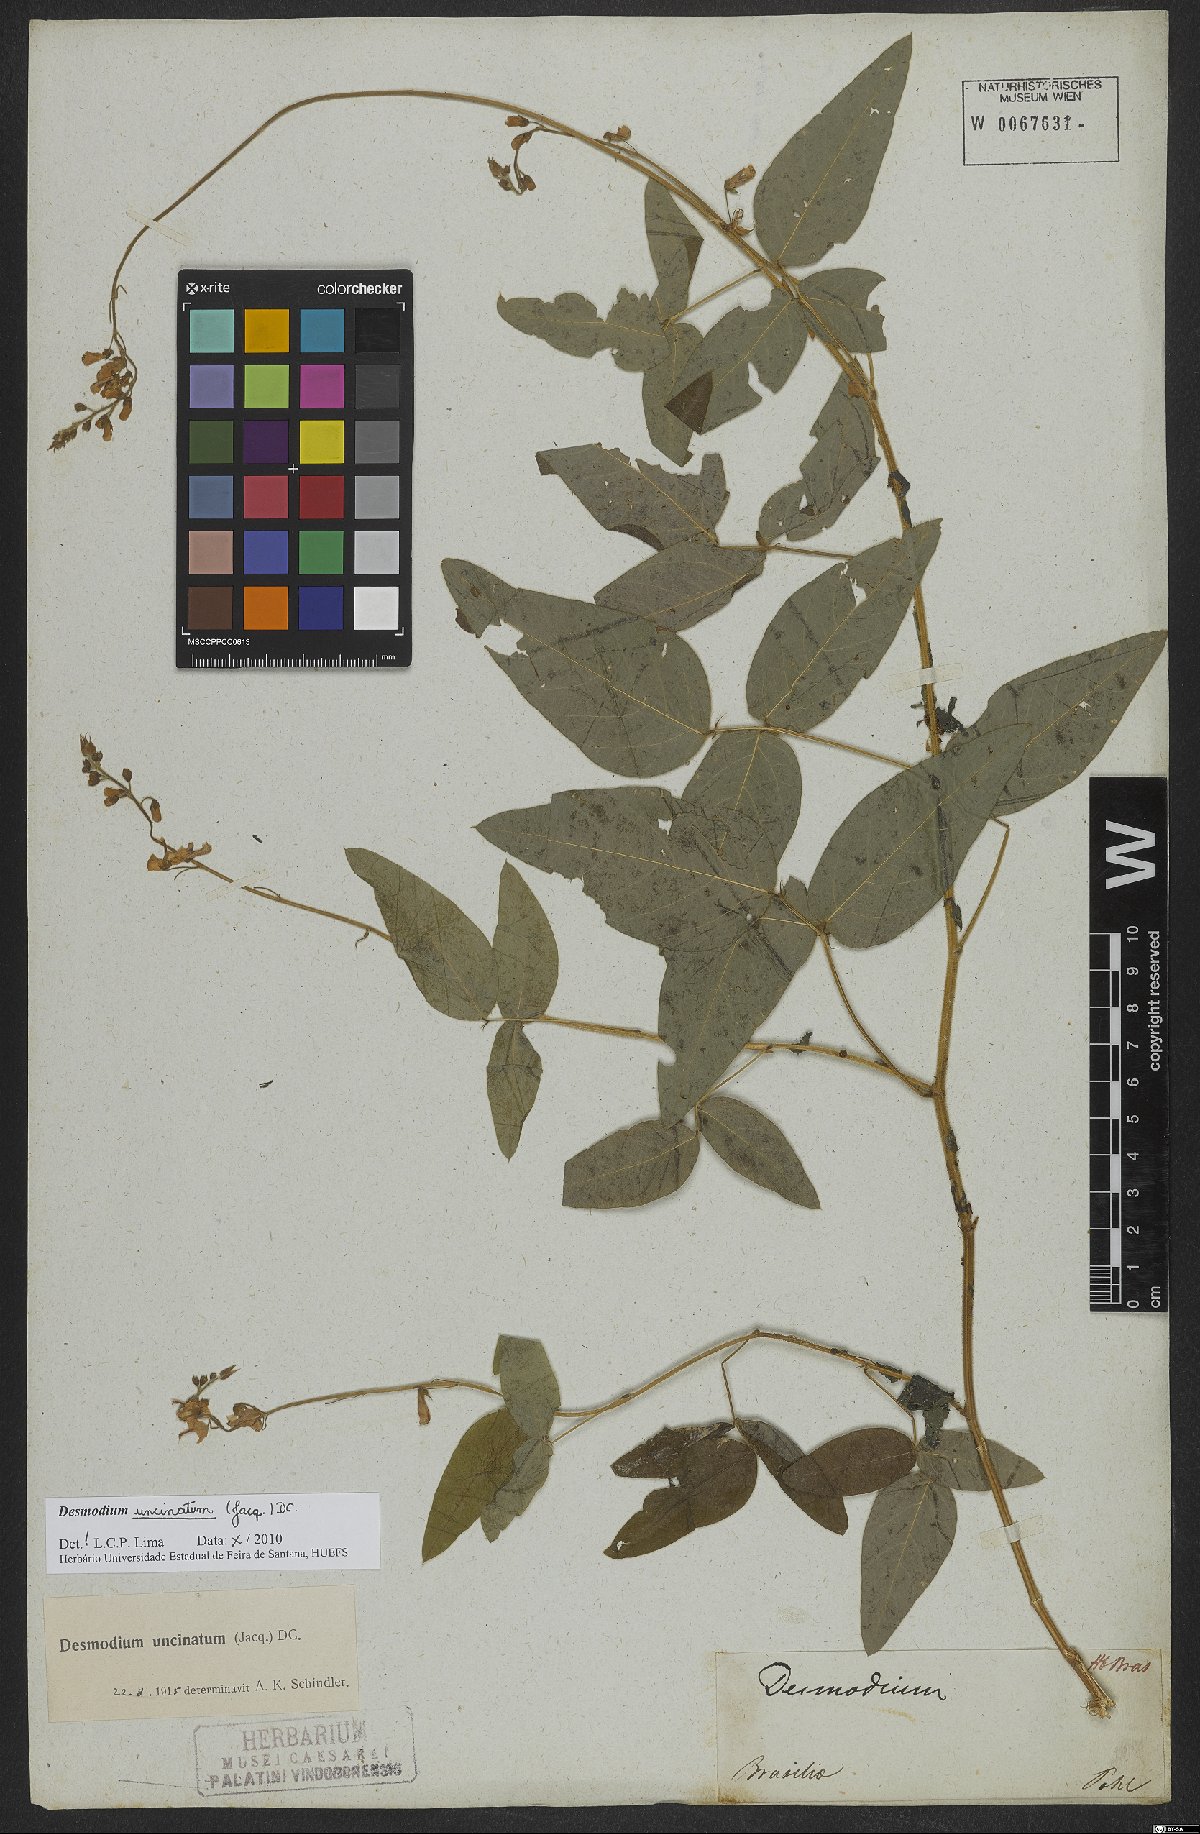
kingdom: Plantae
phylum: Tracheophyta
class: Magnoliopsida
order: Fabales
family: Fabaceae
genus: Desmodium
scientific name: Desmodium uncinatum
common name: Silverleaf desmodium
